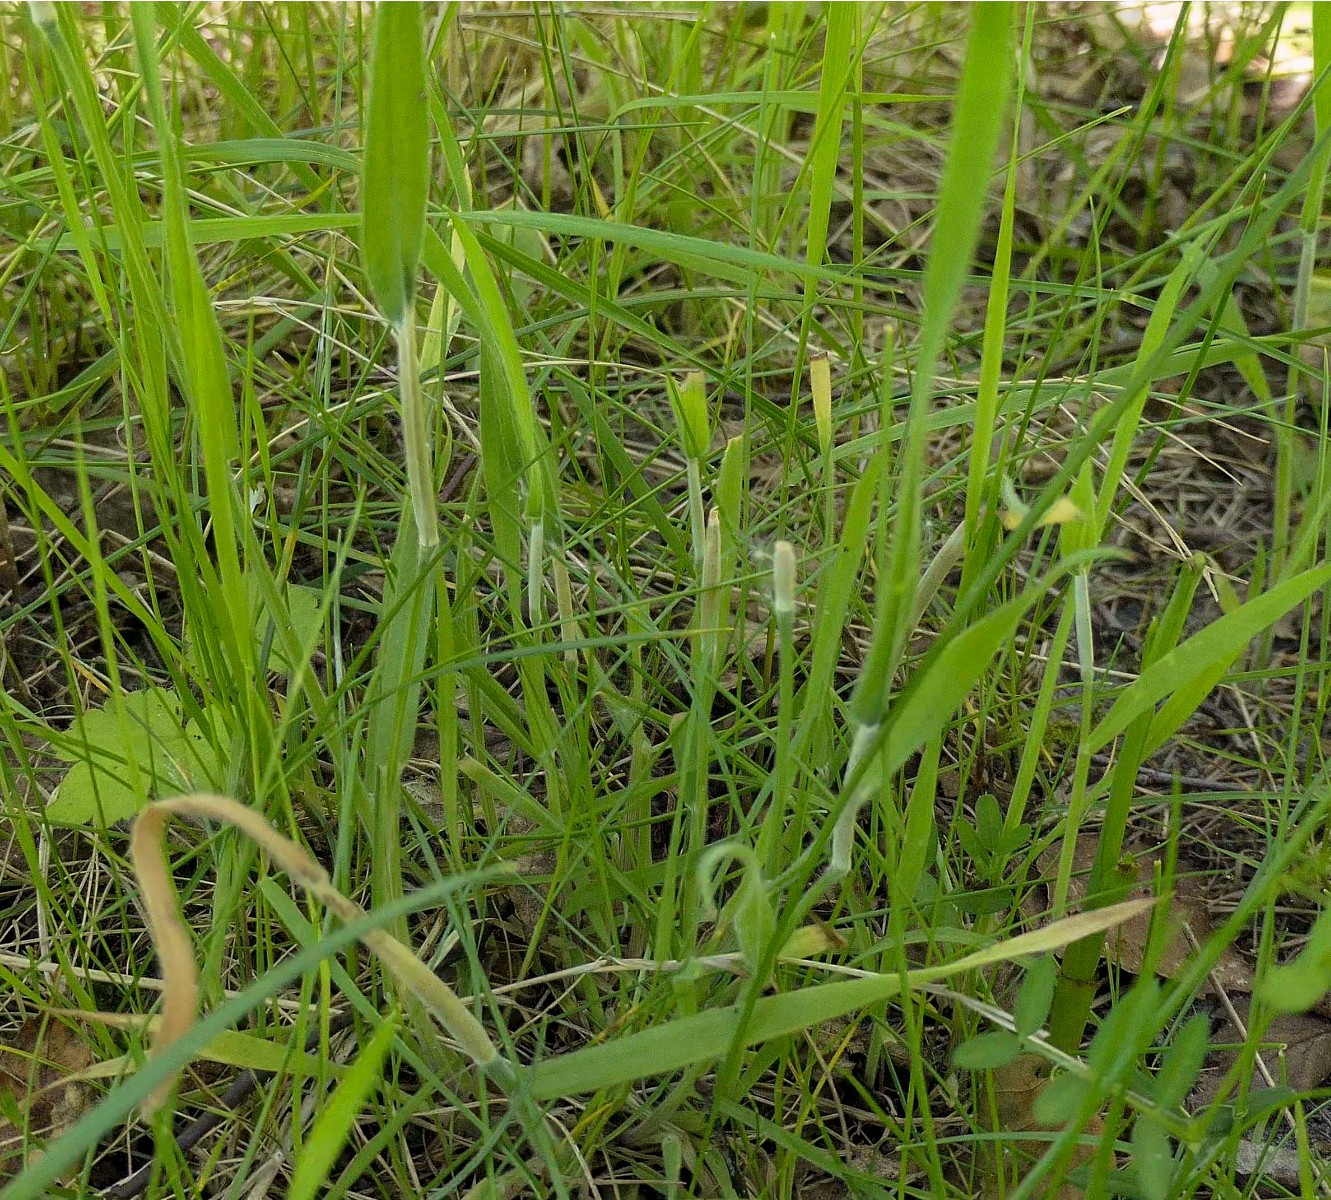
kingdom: Fungi
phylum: Ascomycota
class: Sordariomycetes
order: Hypocreales
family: Clavicipitaceae
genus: Epichloe
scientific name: Epichloe clarkii
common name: fløjlsgræs-kernerør
